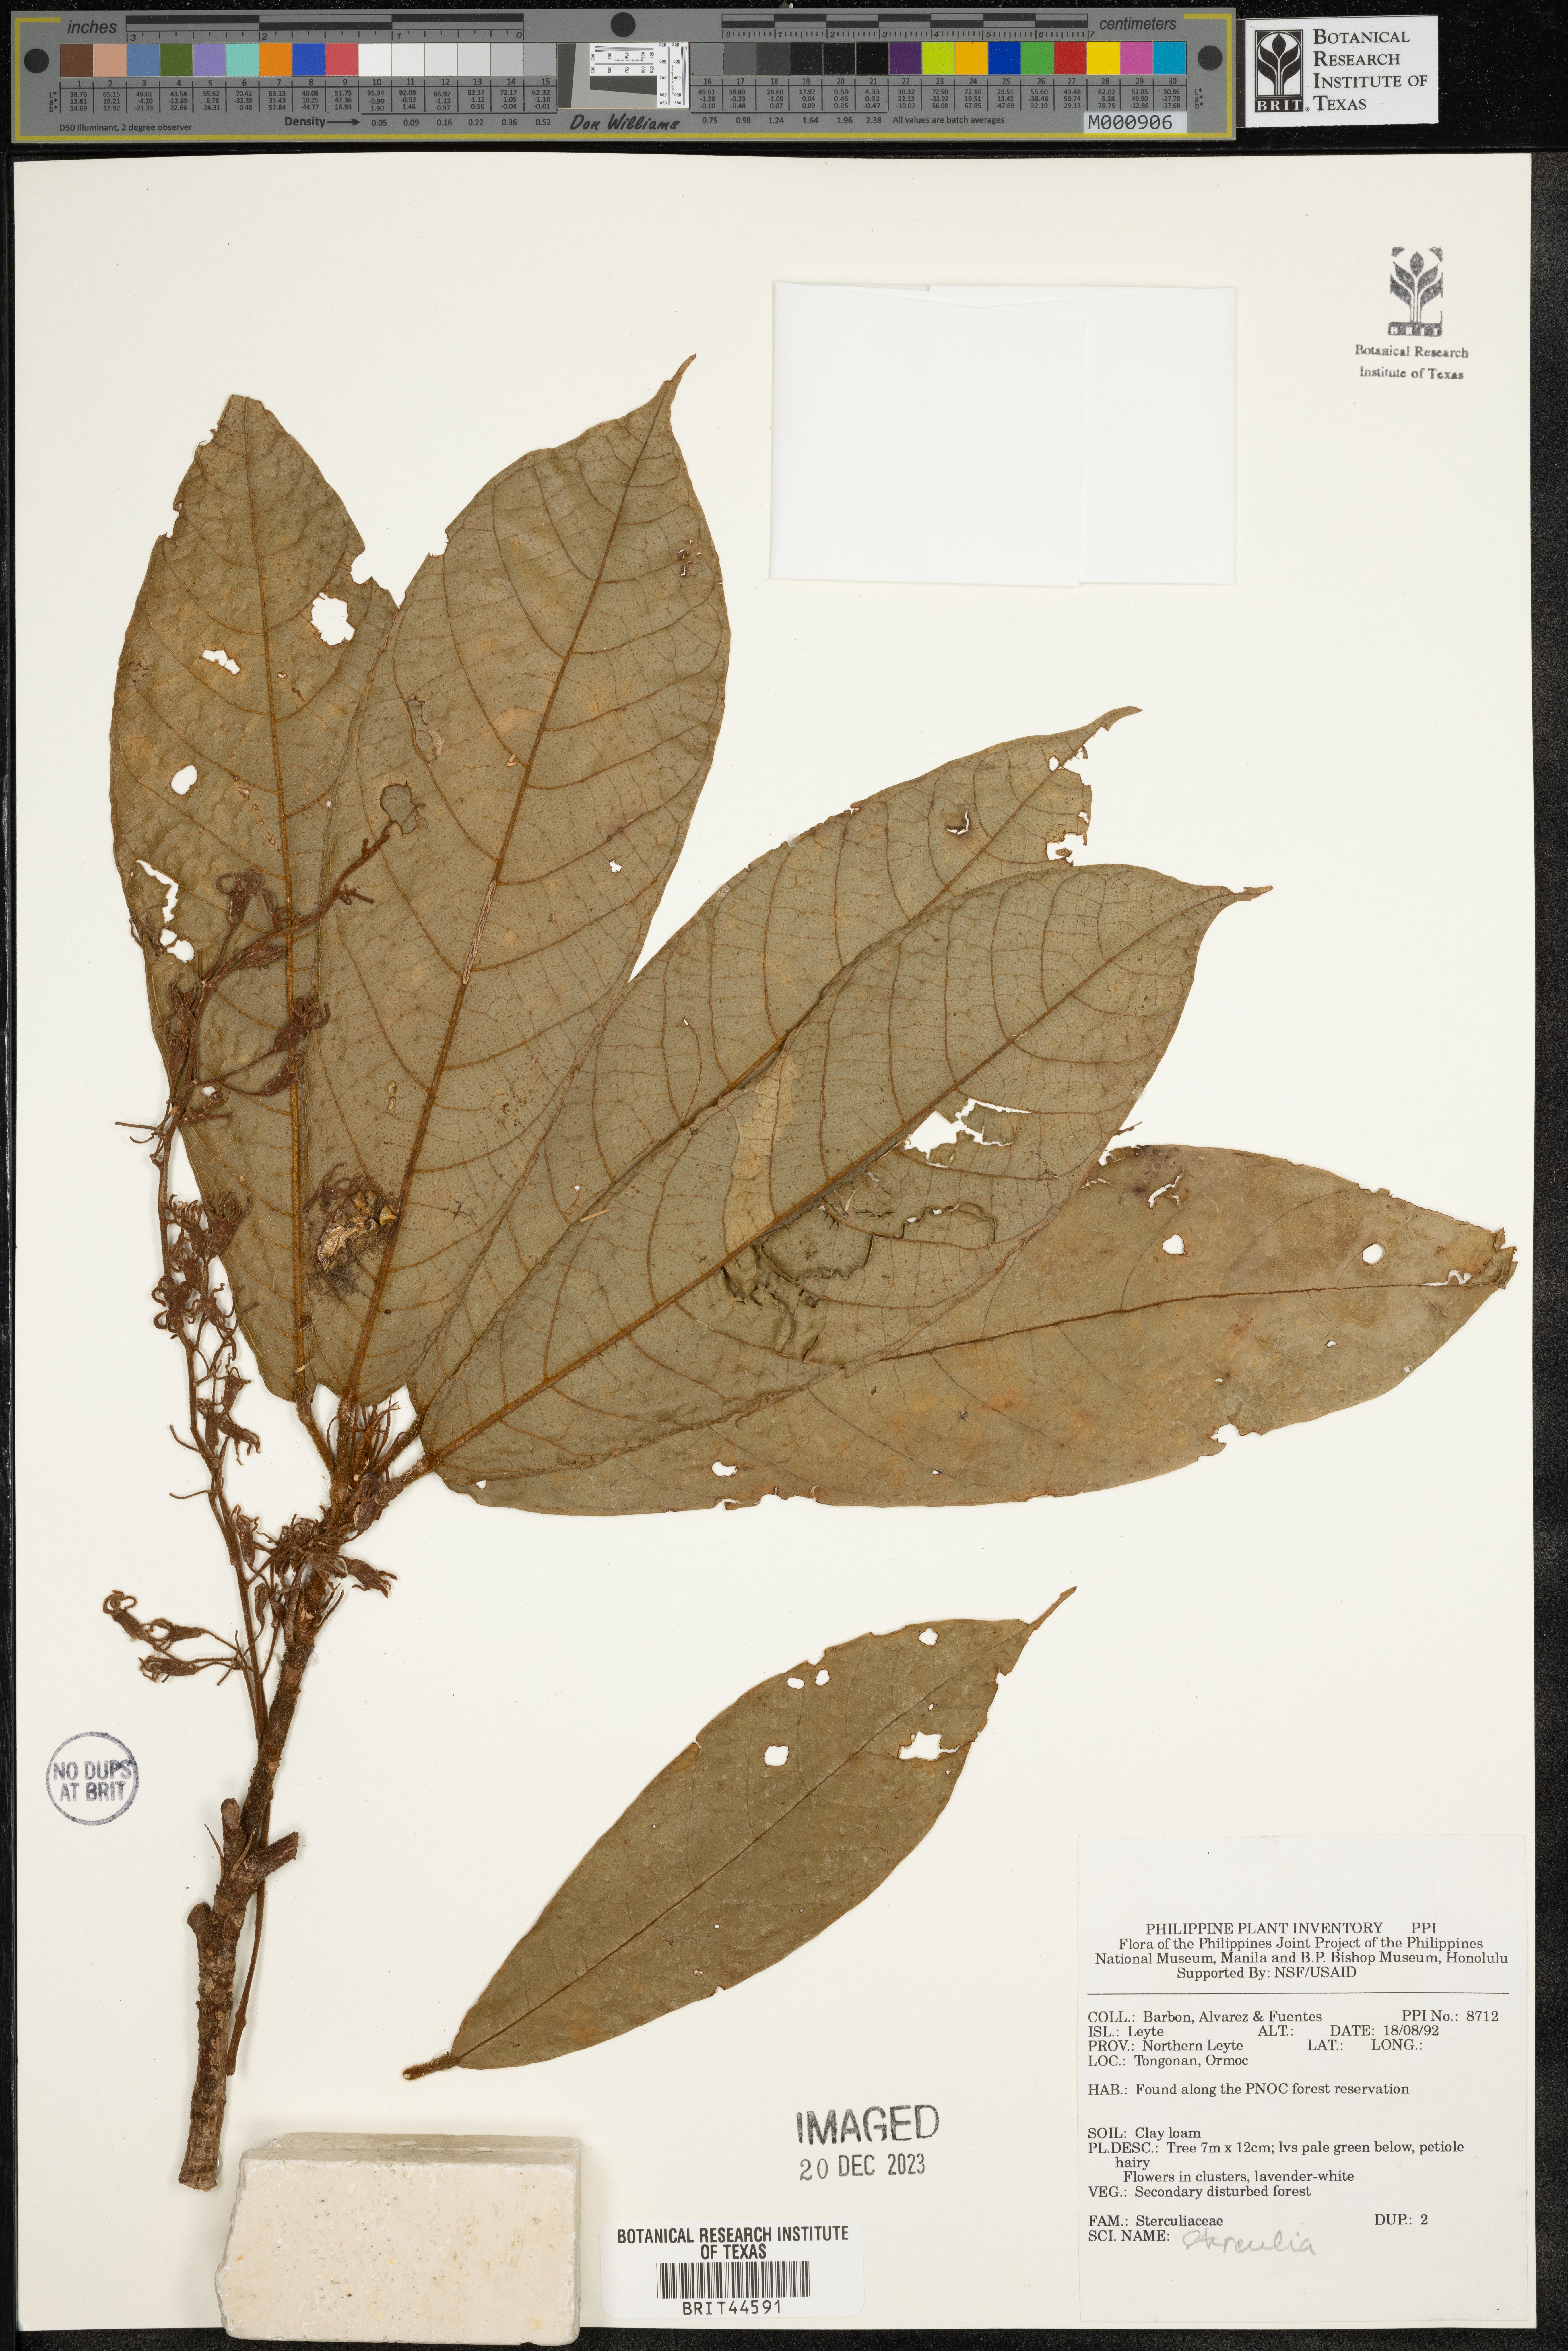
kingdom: Plantae
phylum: Tracheophyta
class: Magnoliopsida
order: Malvales
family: Malvaceae
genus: Sterculia
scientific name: Sterculia
